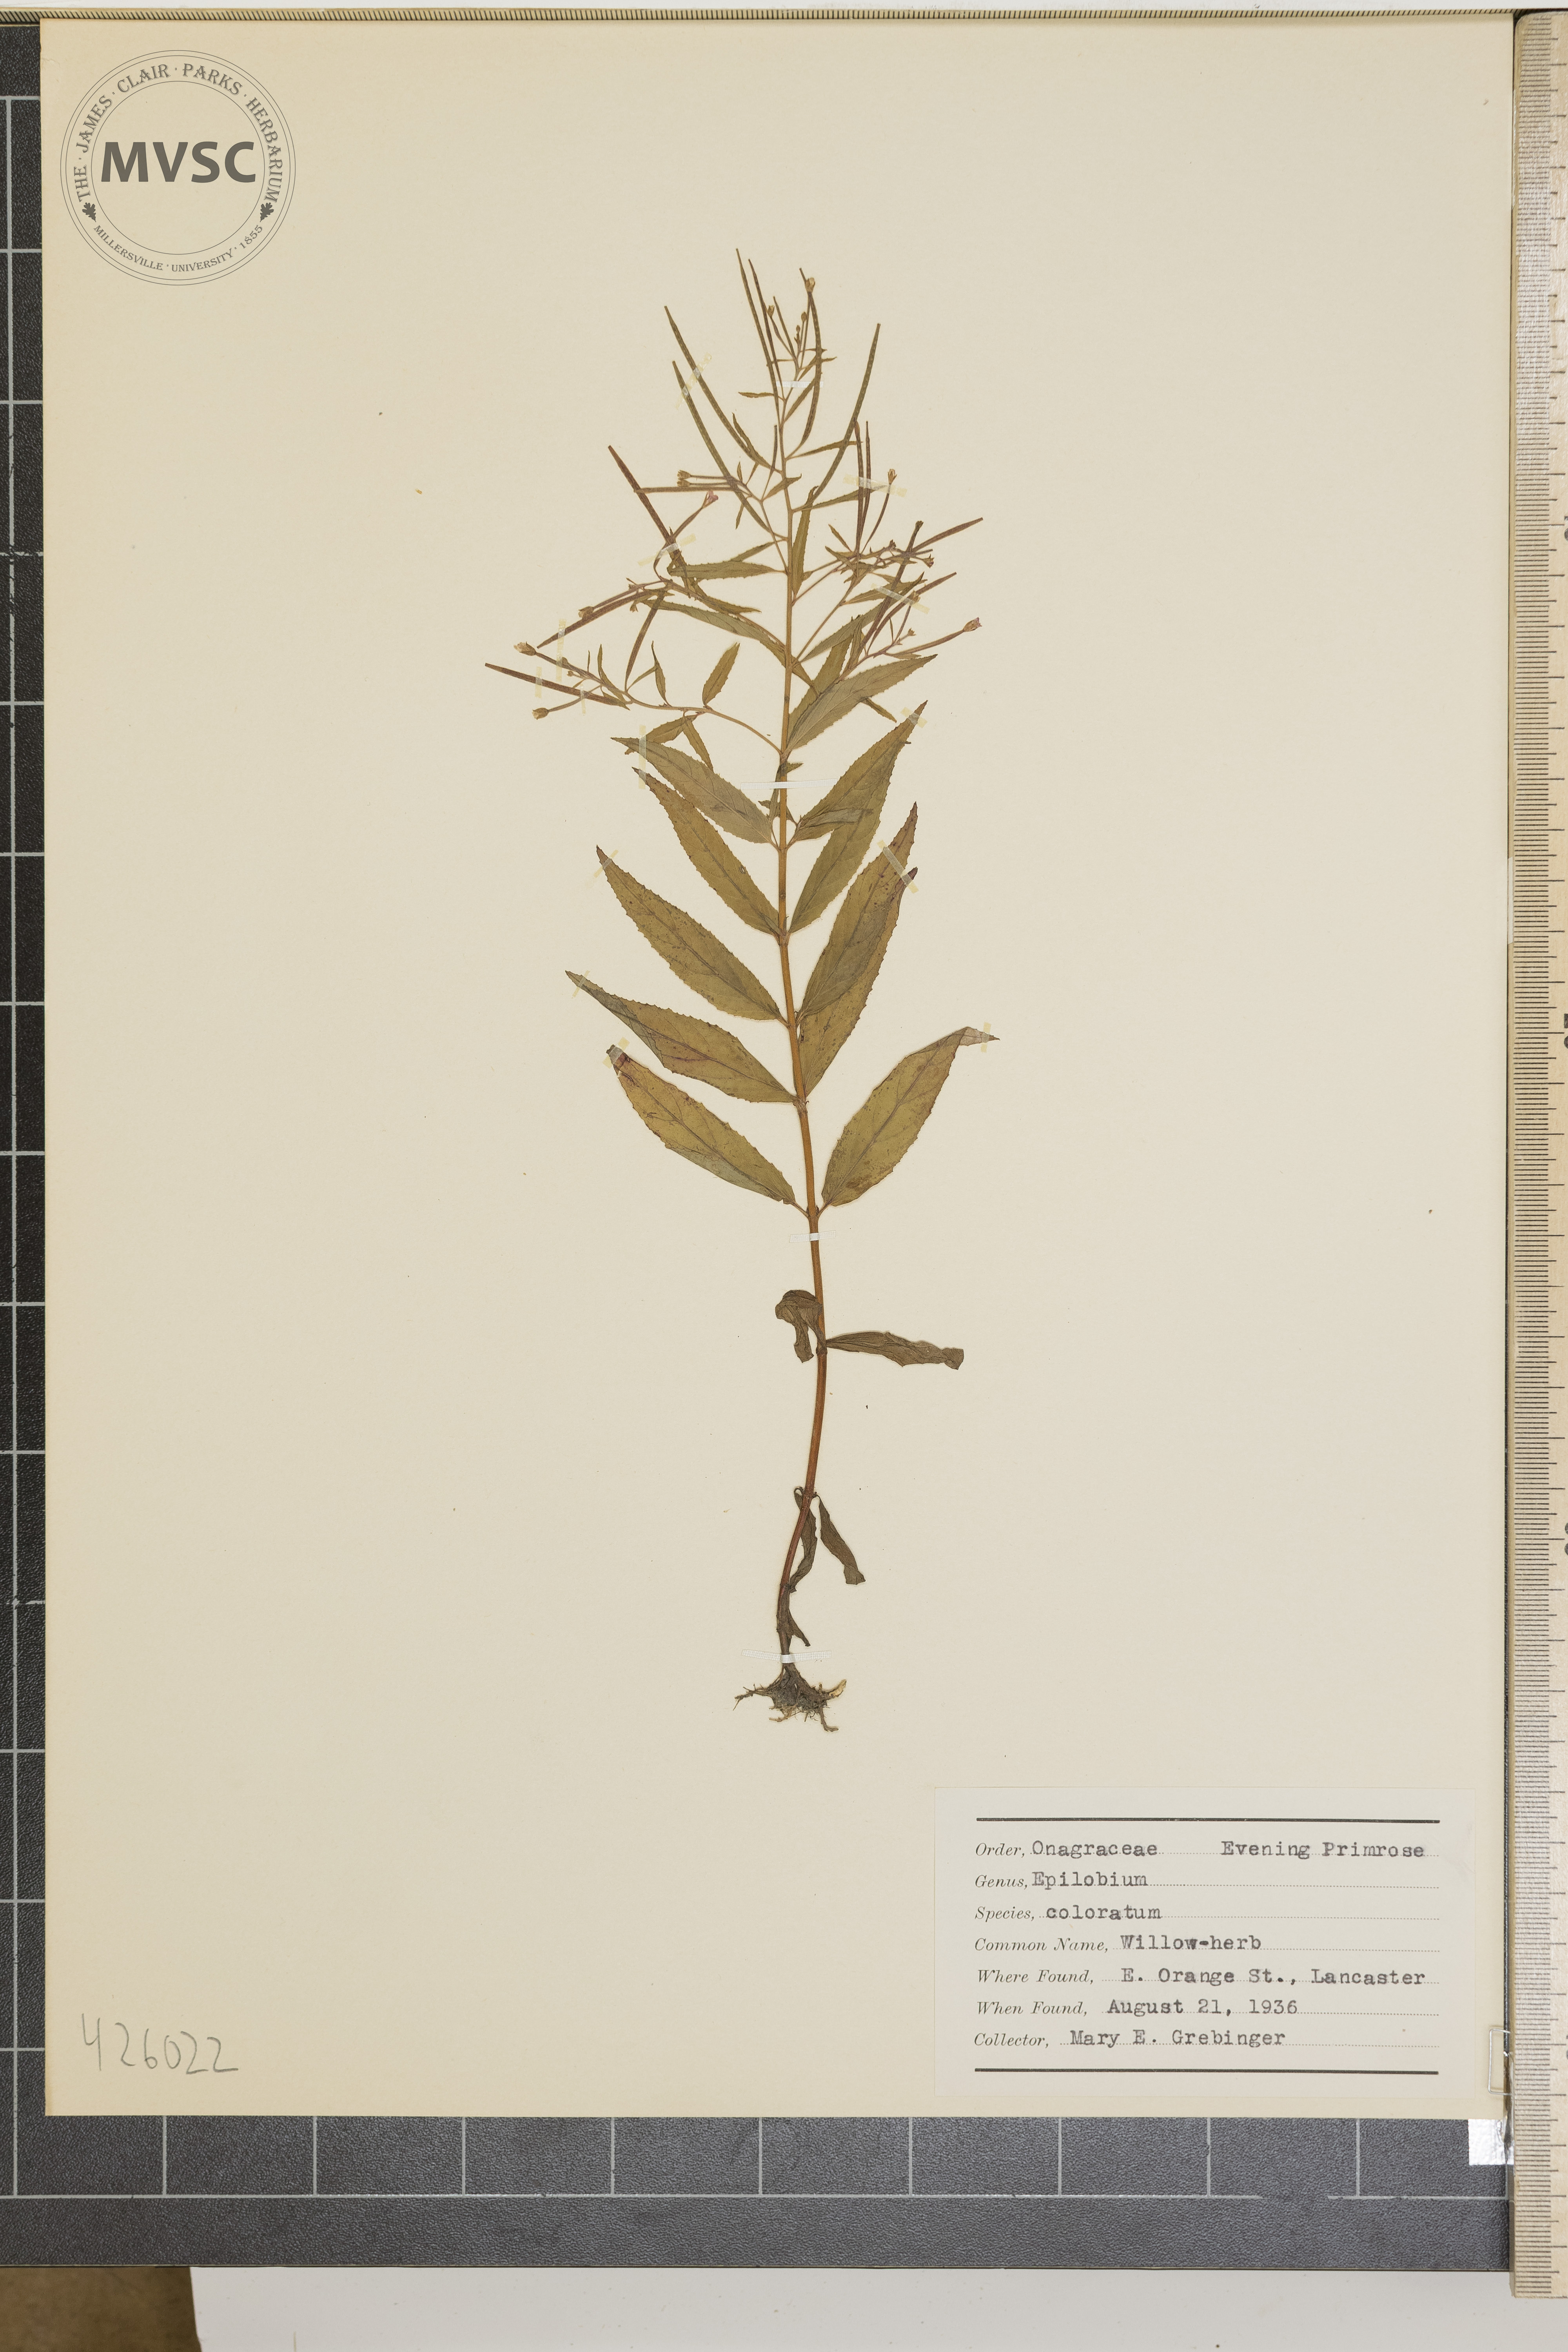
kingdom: Plantae
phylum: Tracheophyta
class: Magnoliopsida
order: Myrtales
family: Onagraceae
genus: Epilobium
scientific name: Epilobium coloratum
